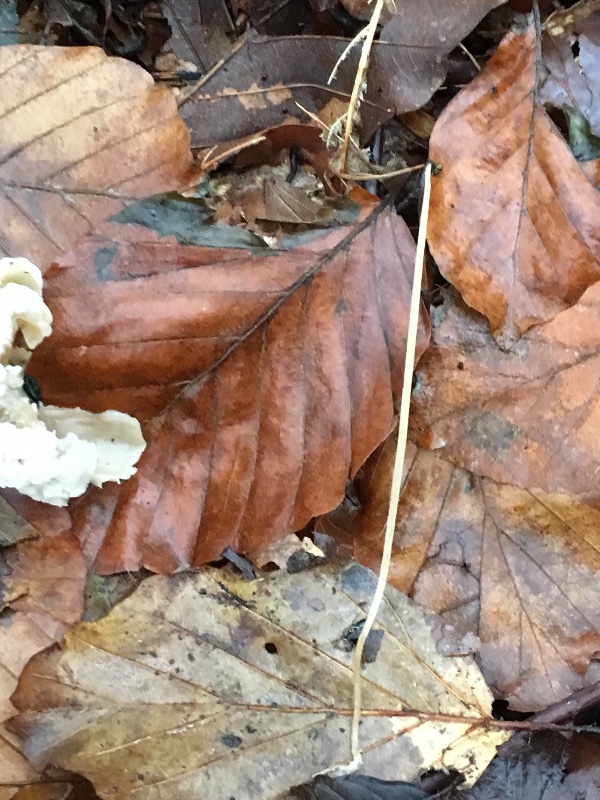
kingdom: Fungi
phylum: Basidiomycota
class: Agaricomycetes
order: Agaricales
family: Typhulaceae
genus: Typhula
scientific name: Typhula juncea
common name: trådagtig rørkølle
